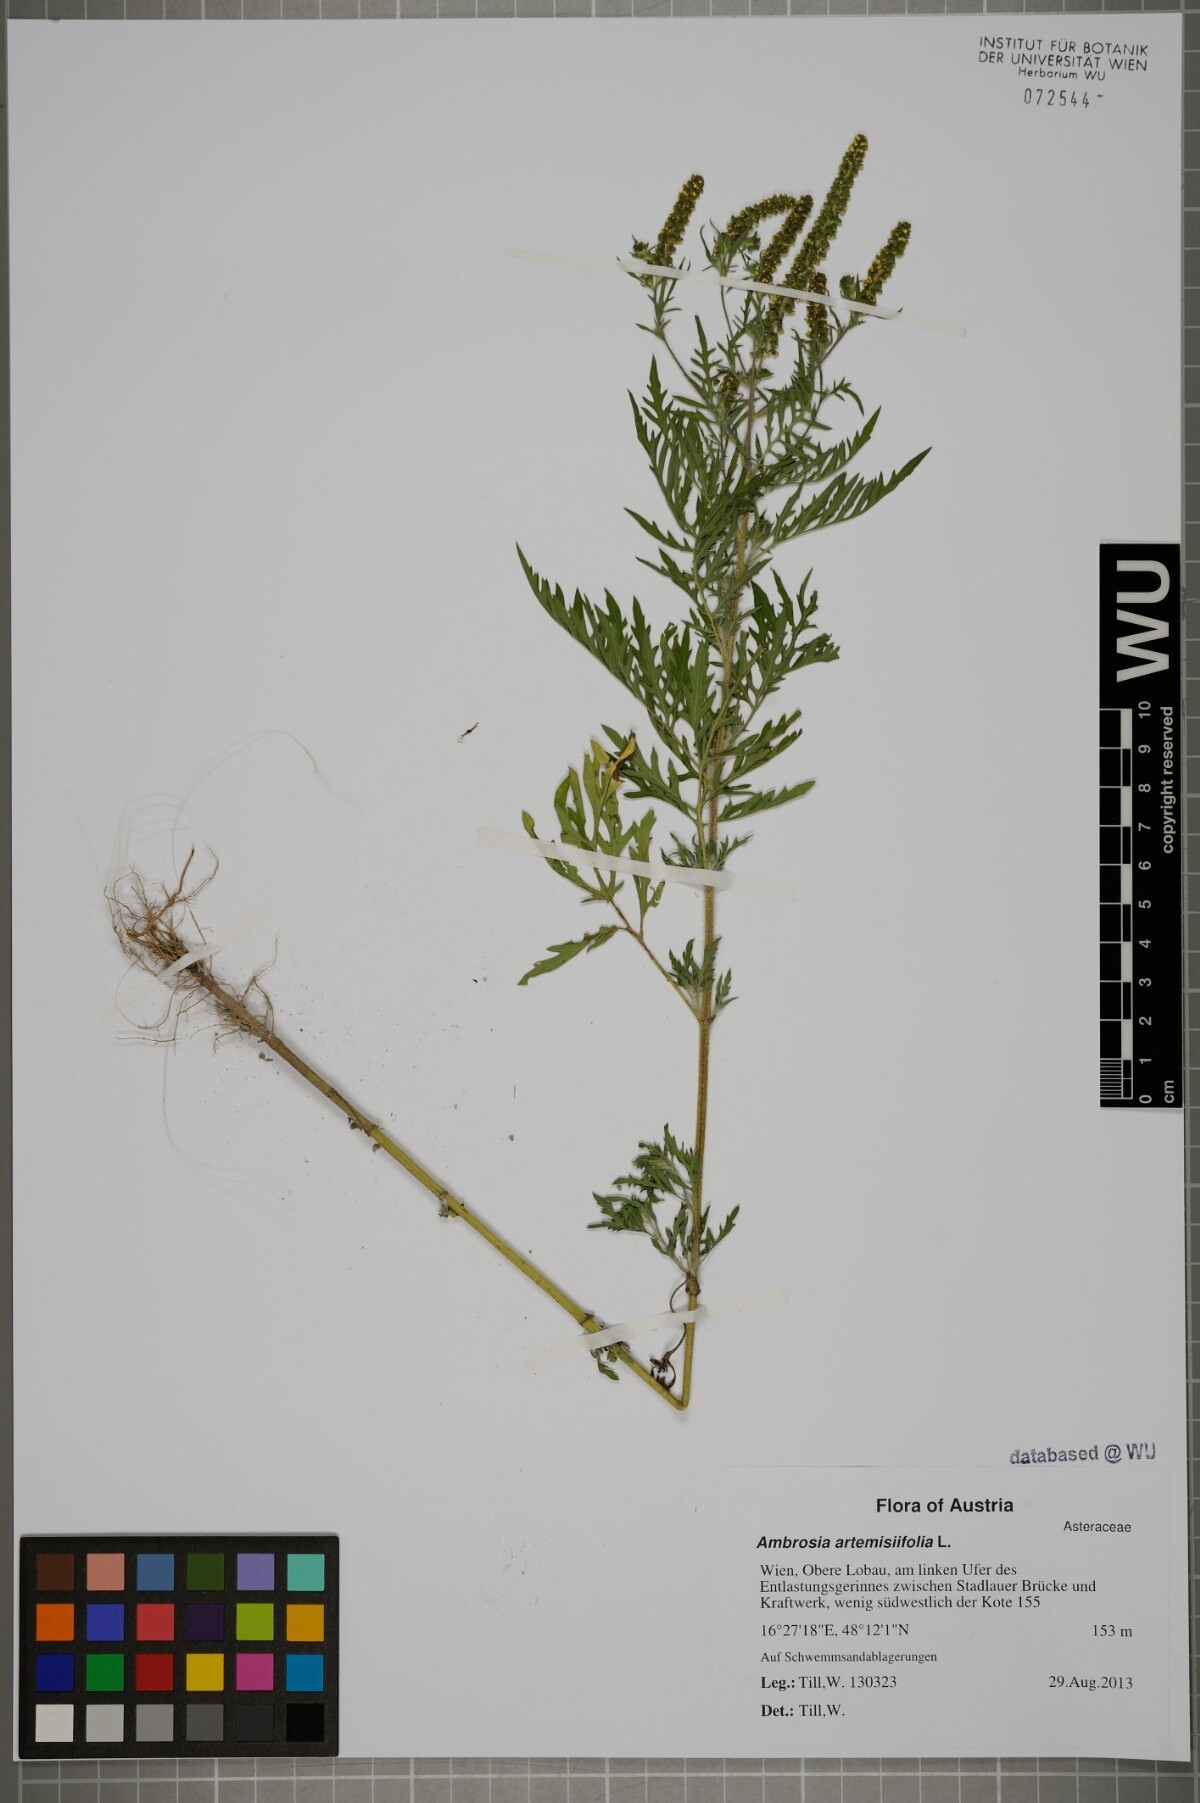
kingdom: Plantae
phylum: Tracheophyta
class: Magnoliopsida
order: Asterales
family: Asteraceae
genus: Ambrosia
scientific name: Ambrosia artemisiifolia
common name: Annual ragweed
